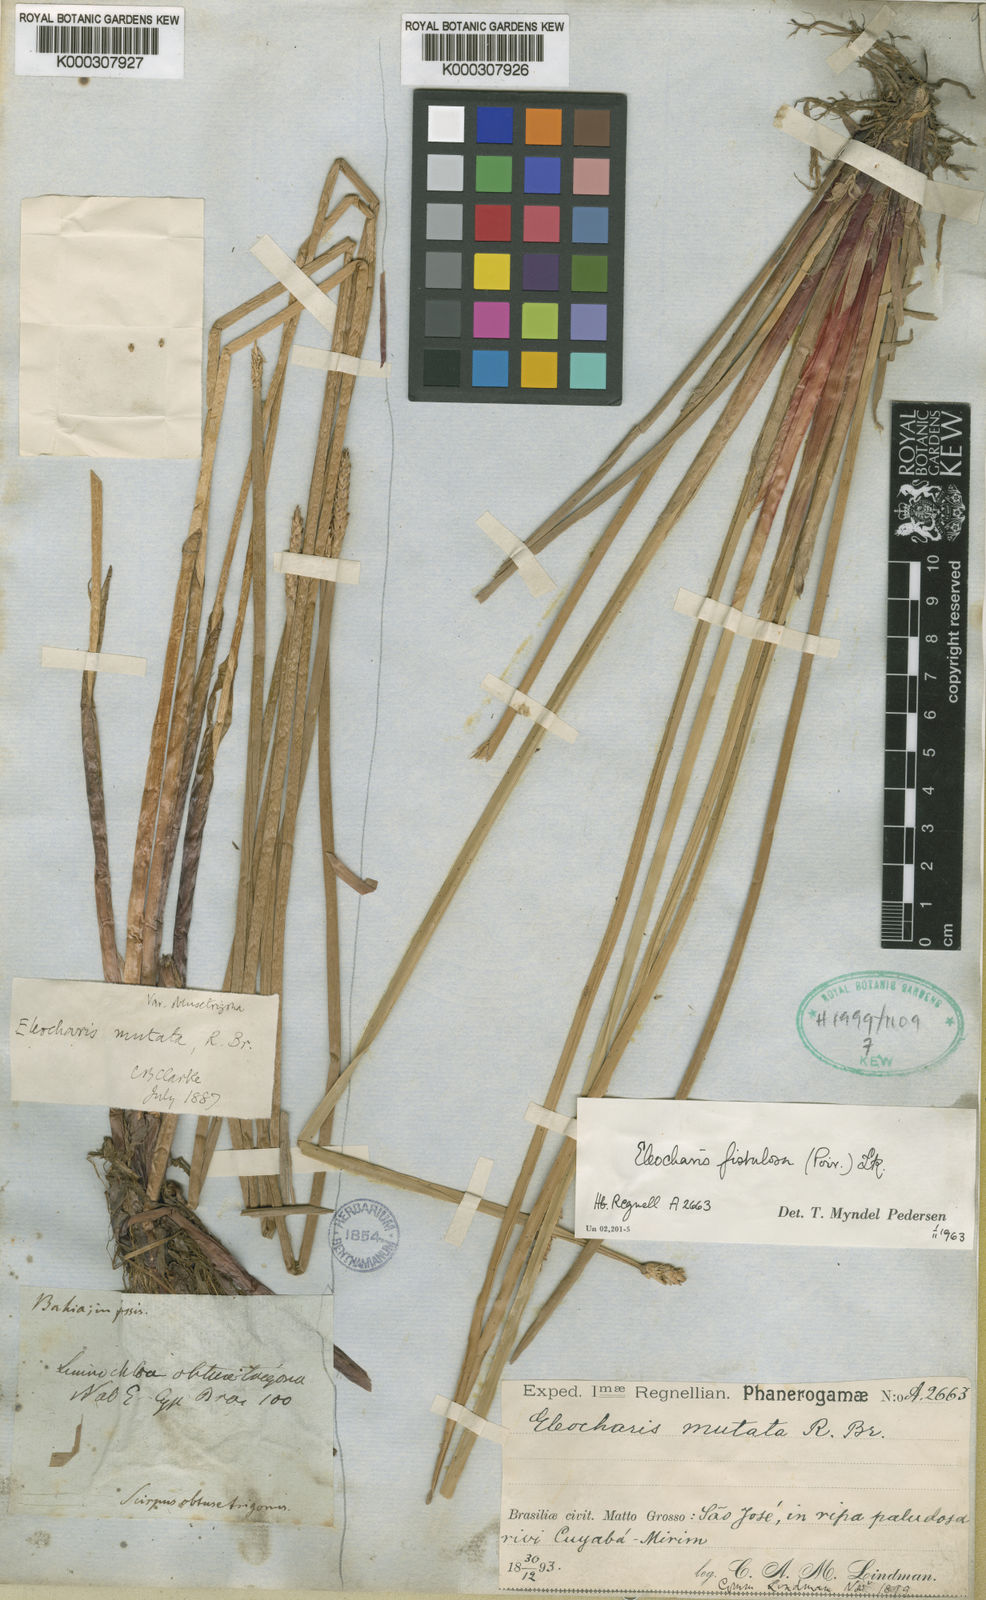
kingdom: Plantae
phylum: Tracheophyta
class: Liliopsida
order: Poales
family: Cyperaceae
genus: Eleocharis
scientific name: Eleocharis
